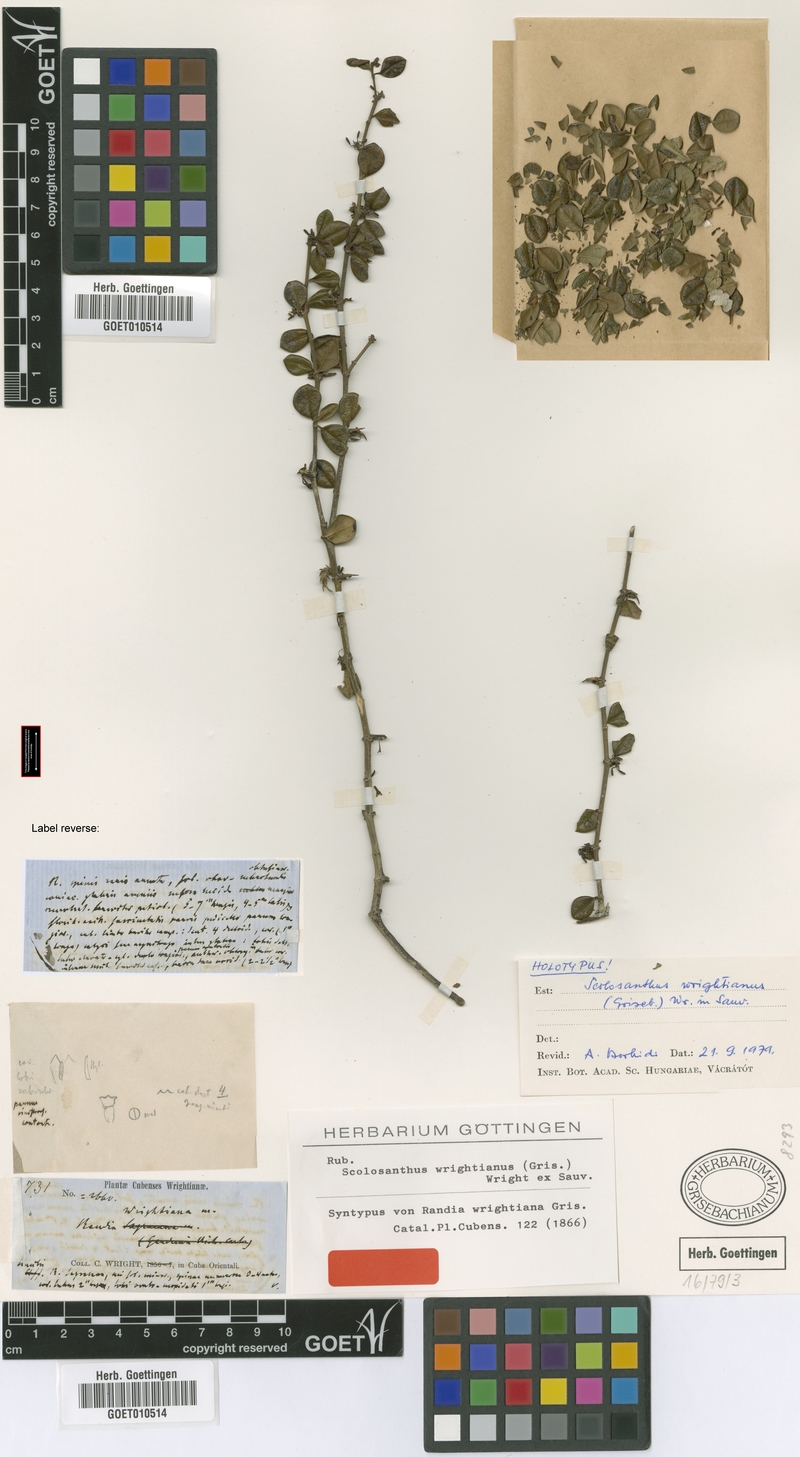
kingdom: Plantae
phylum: Tracheophyta
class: Magnoliopsida
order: Gentianales
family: Rubiaceae
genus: Scolosanthus
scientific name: Scolosanthus wrightianus
